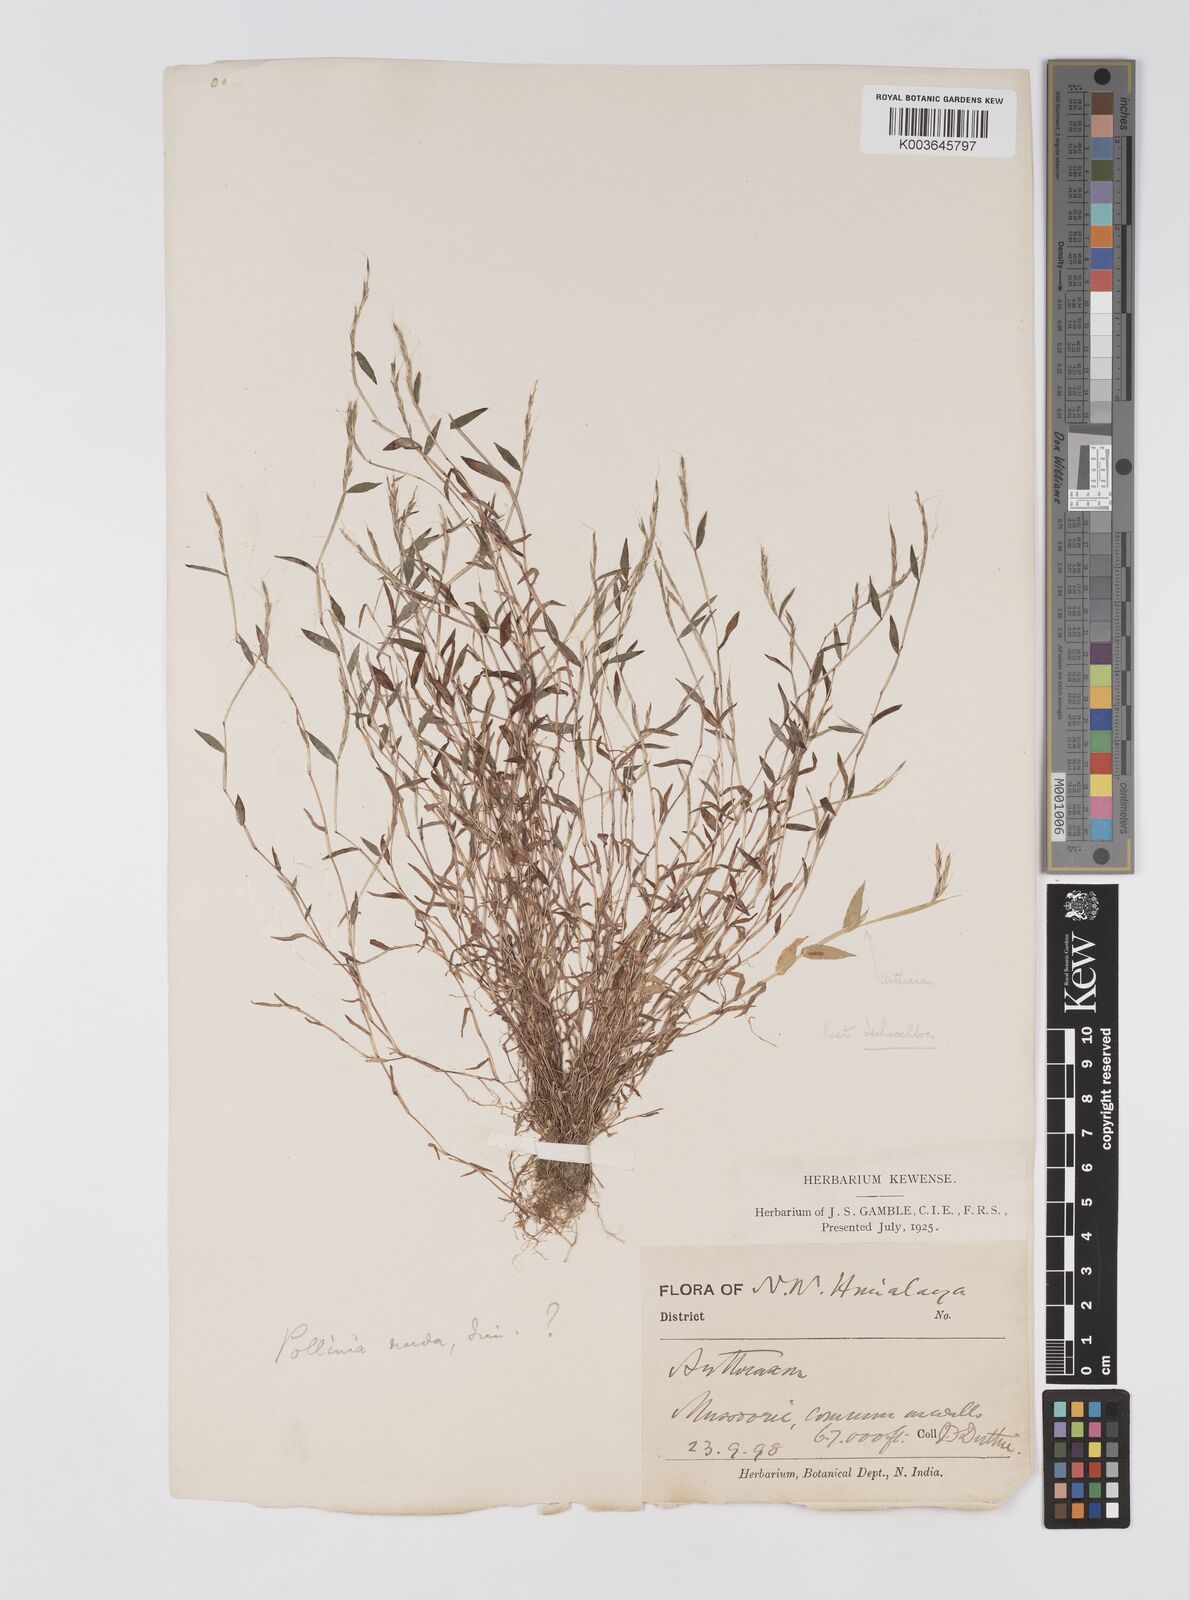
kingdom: Plantae
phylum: Tracheophyta
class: Liliopsida
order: Poales
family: Poaceae
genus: Microstegium
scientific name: Microstegium falconeri
